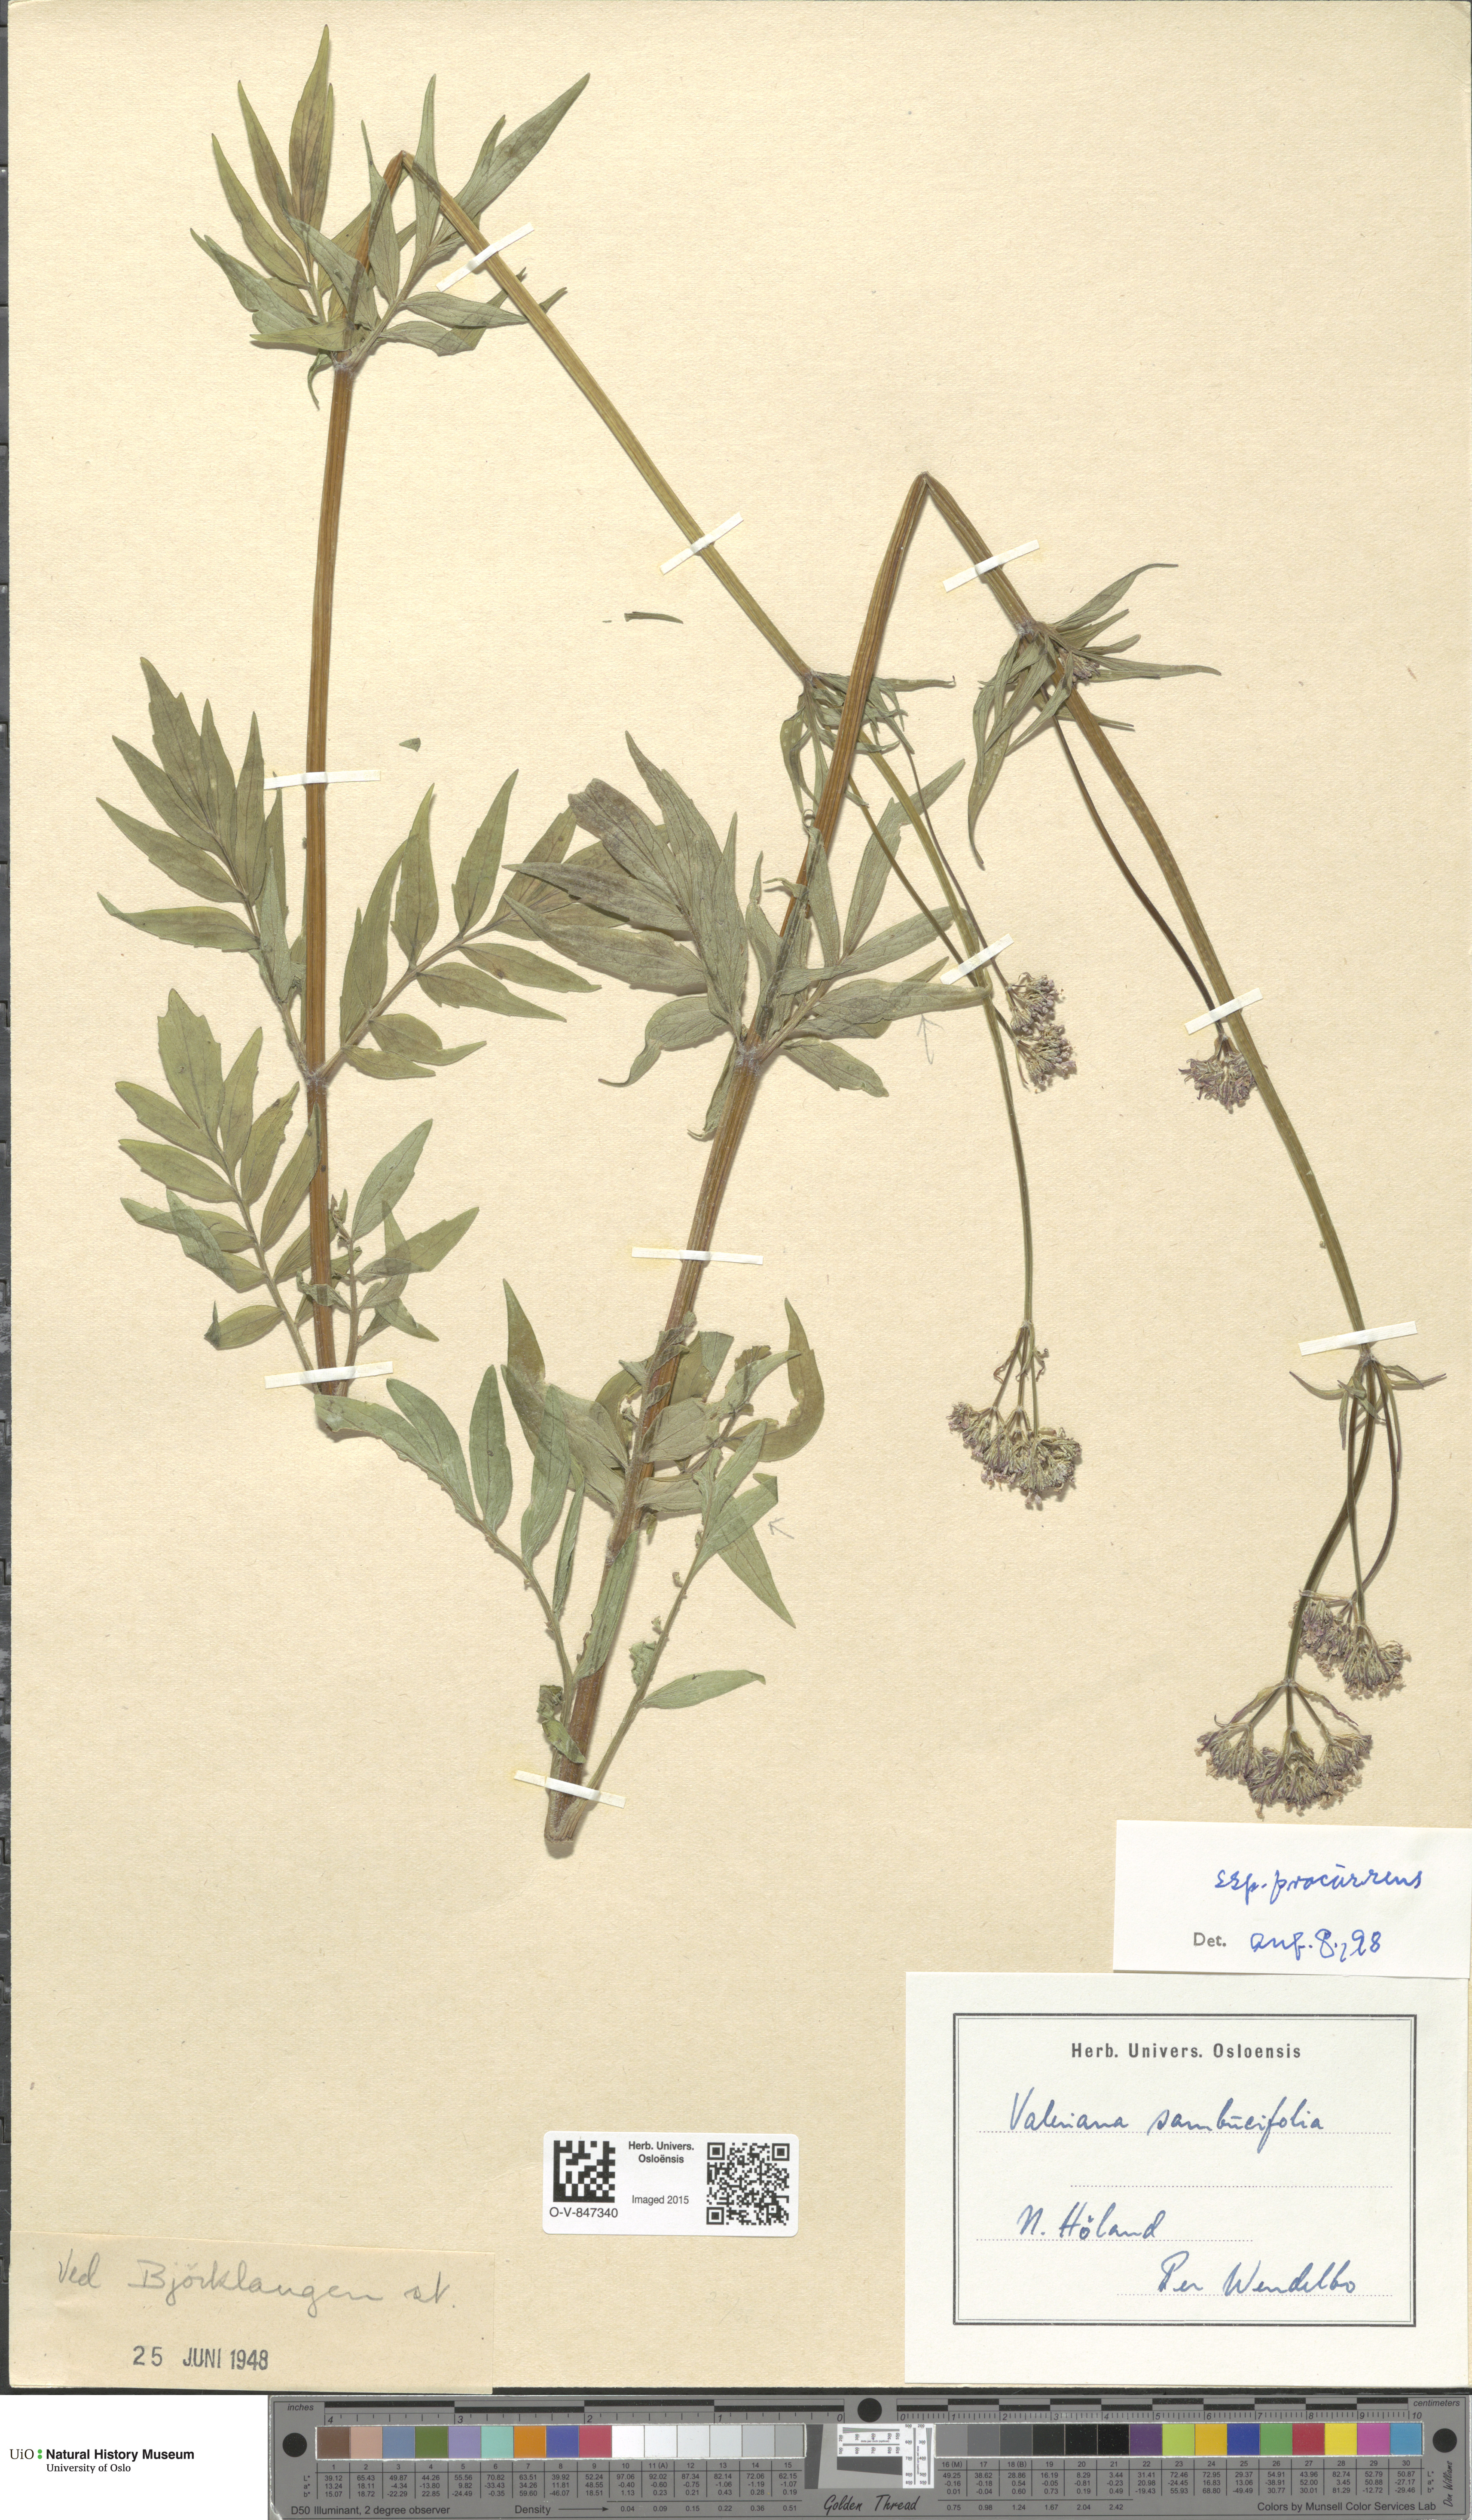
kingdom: Plantae
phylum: Tracheophyta
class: Magnoliopsida
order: Dipsacales
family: Caprifoliaceae
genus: Valeriana
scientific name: Valeriana excelsa
